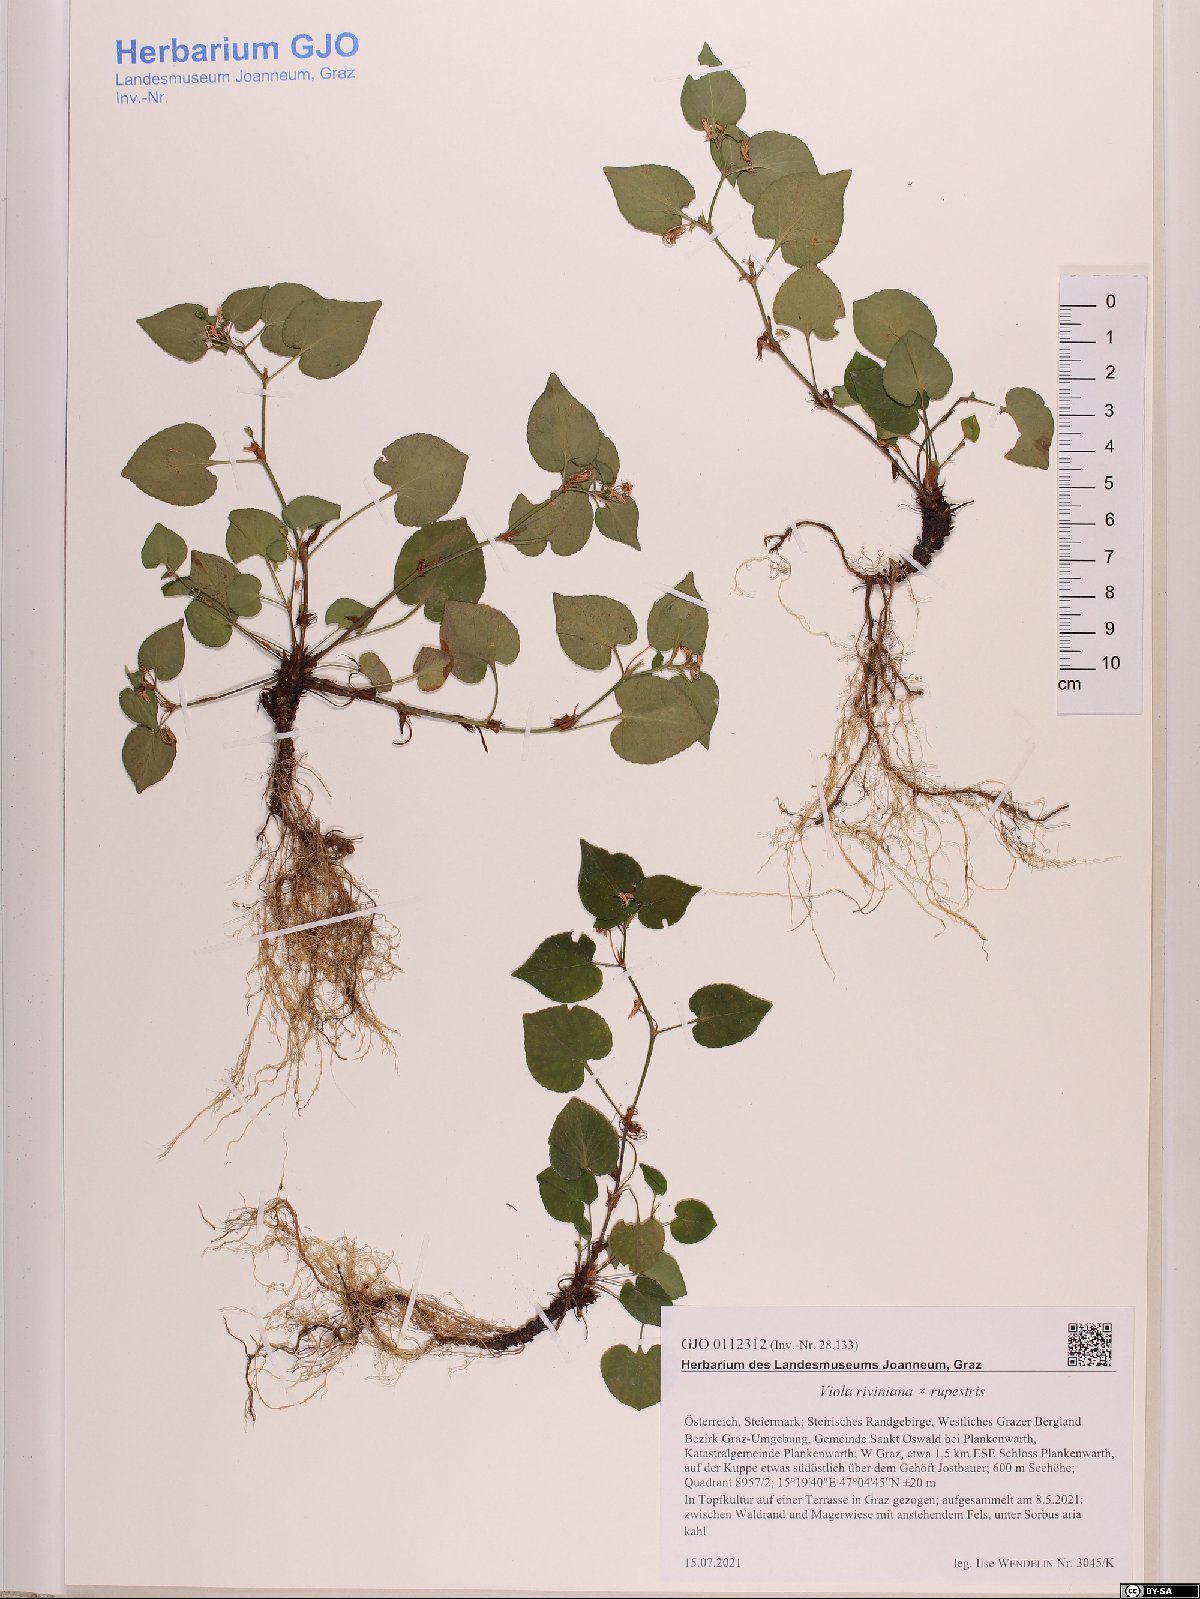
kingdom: Plantae
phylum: Tracheophyta
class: Magnoliopsida
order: Malpighiales
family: Violaceae
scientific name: Violaceae
